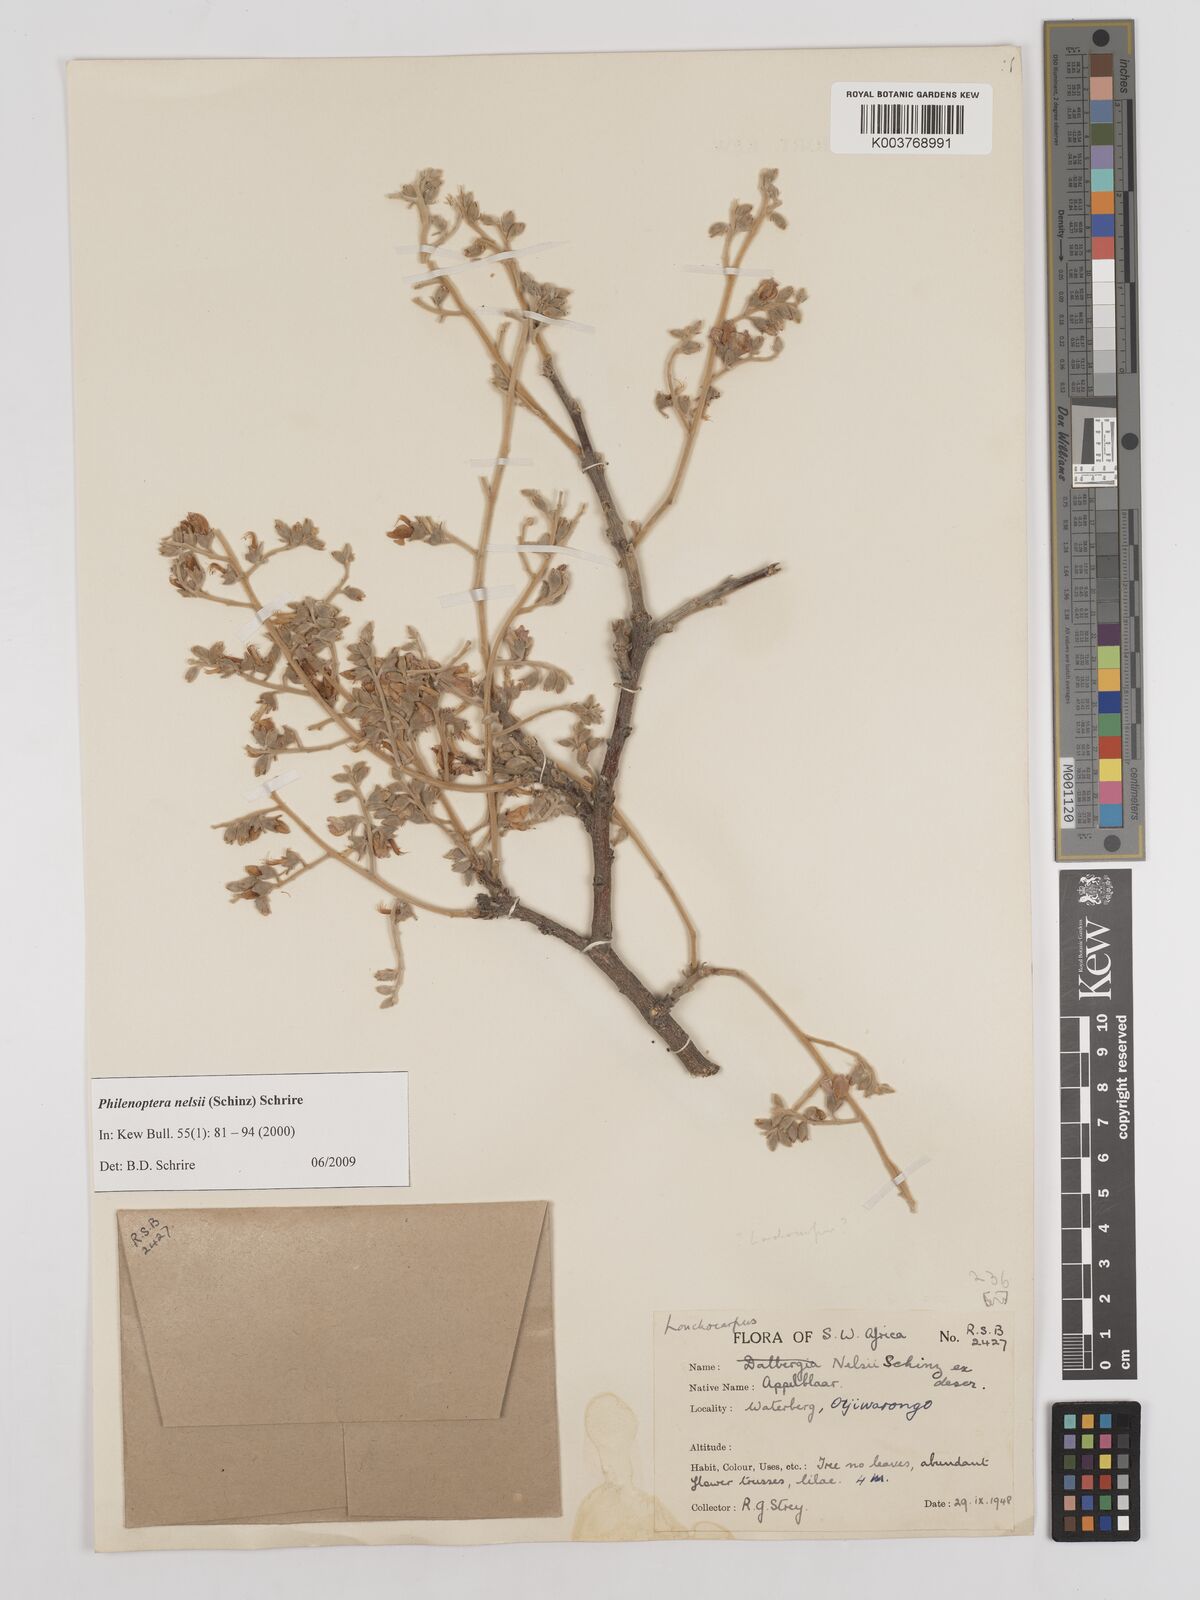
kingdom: Plantae
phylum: Tracheophyta
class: Magnoliopsida
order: Fabales
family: Fabaceae
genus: Philenoptera
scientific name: Philenoptera nelsii
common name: Kalahari apple-leaf
